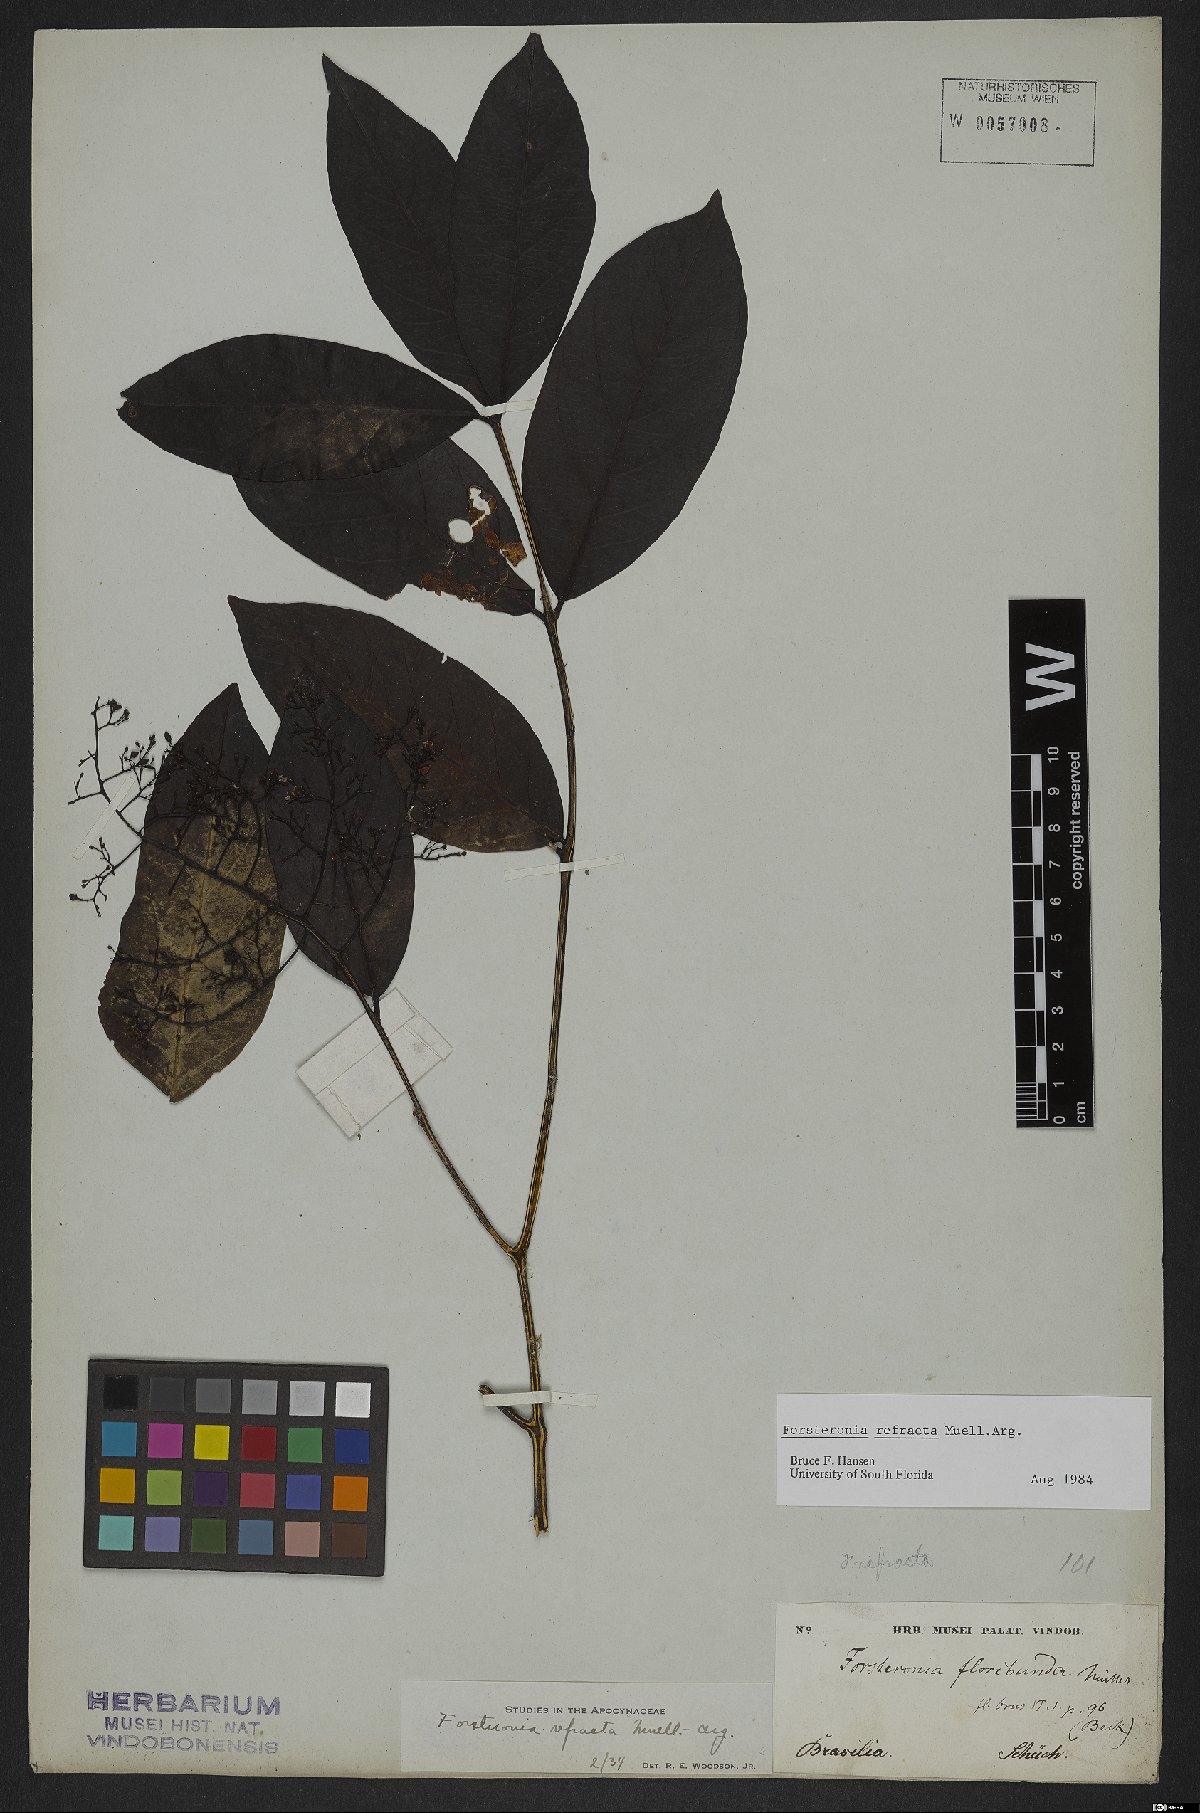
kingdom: Plantae
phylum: Tracheophyta
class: Magnoliopsida
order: Gentianales
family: Apocynaceae
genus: Forsteronia
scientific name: Forsteronia refracta
